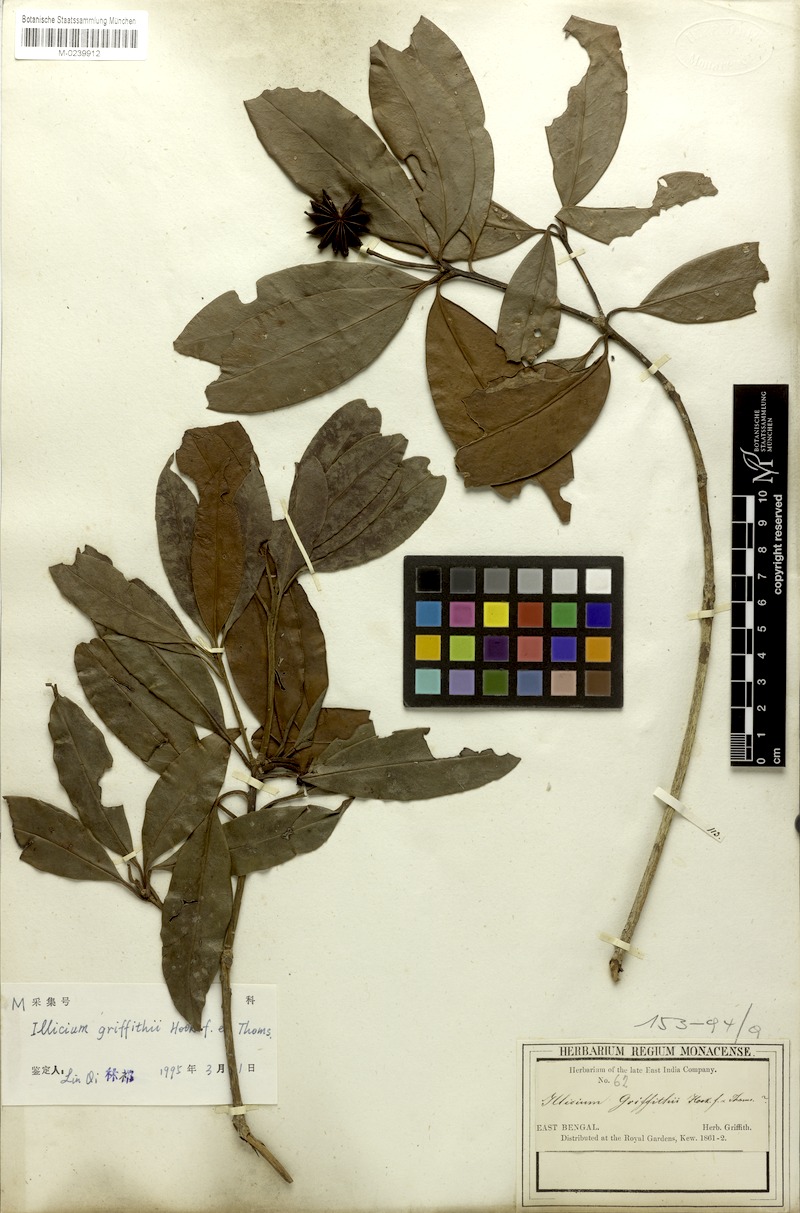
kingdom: Plantae
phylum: Tracheophyta
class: Magnoliopsida
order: Austrobaileyales
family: Schisandraceae
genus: Illicium
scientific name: Illicium griffithii
